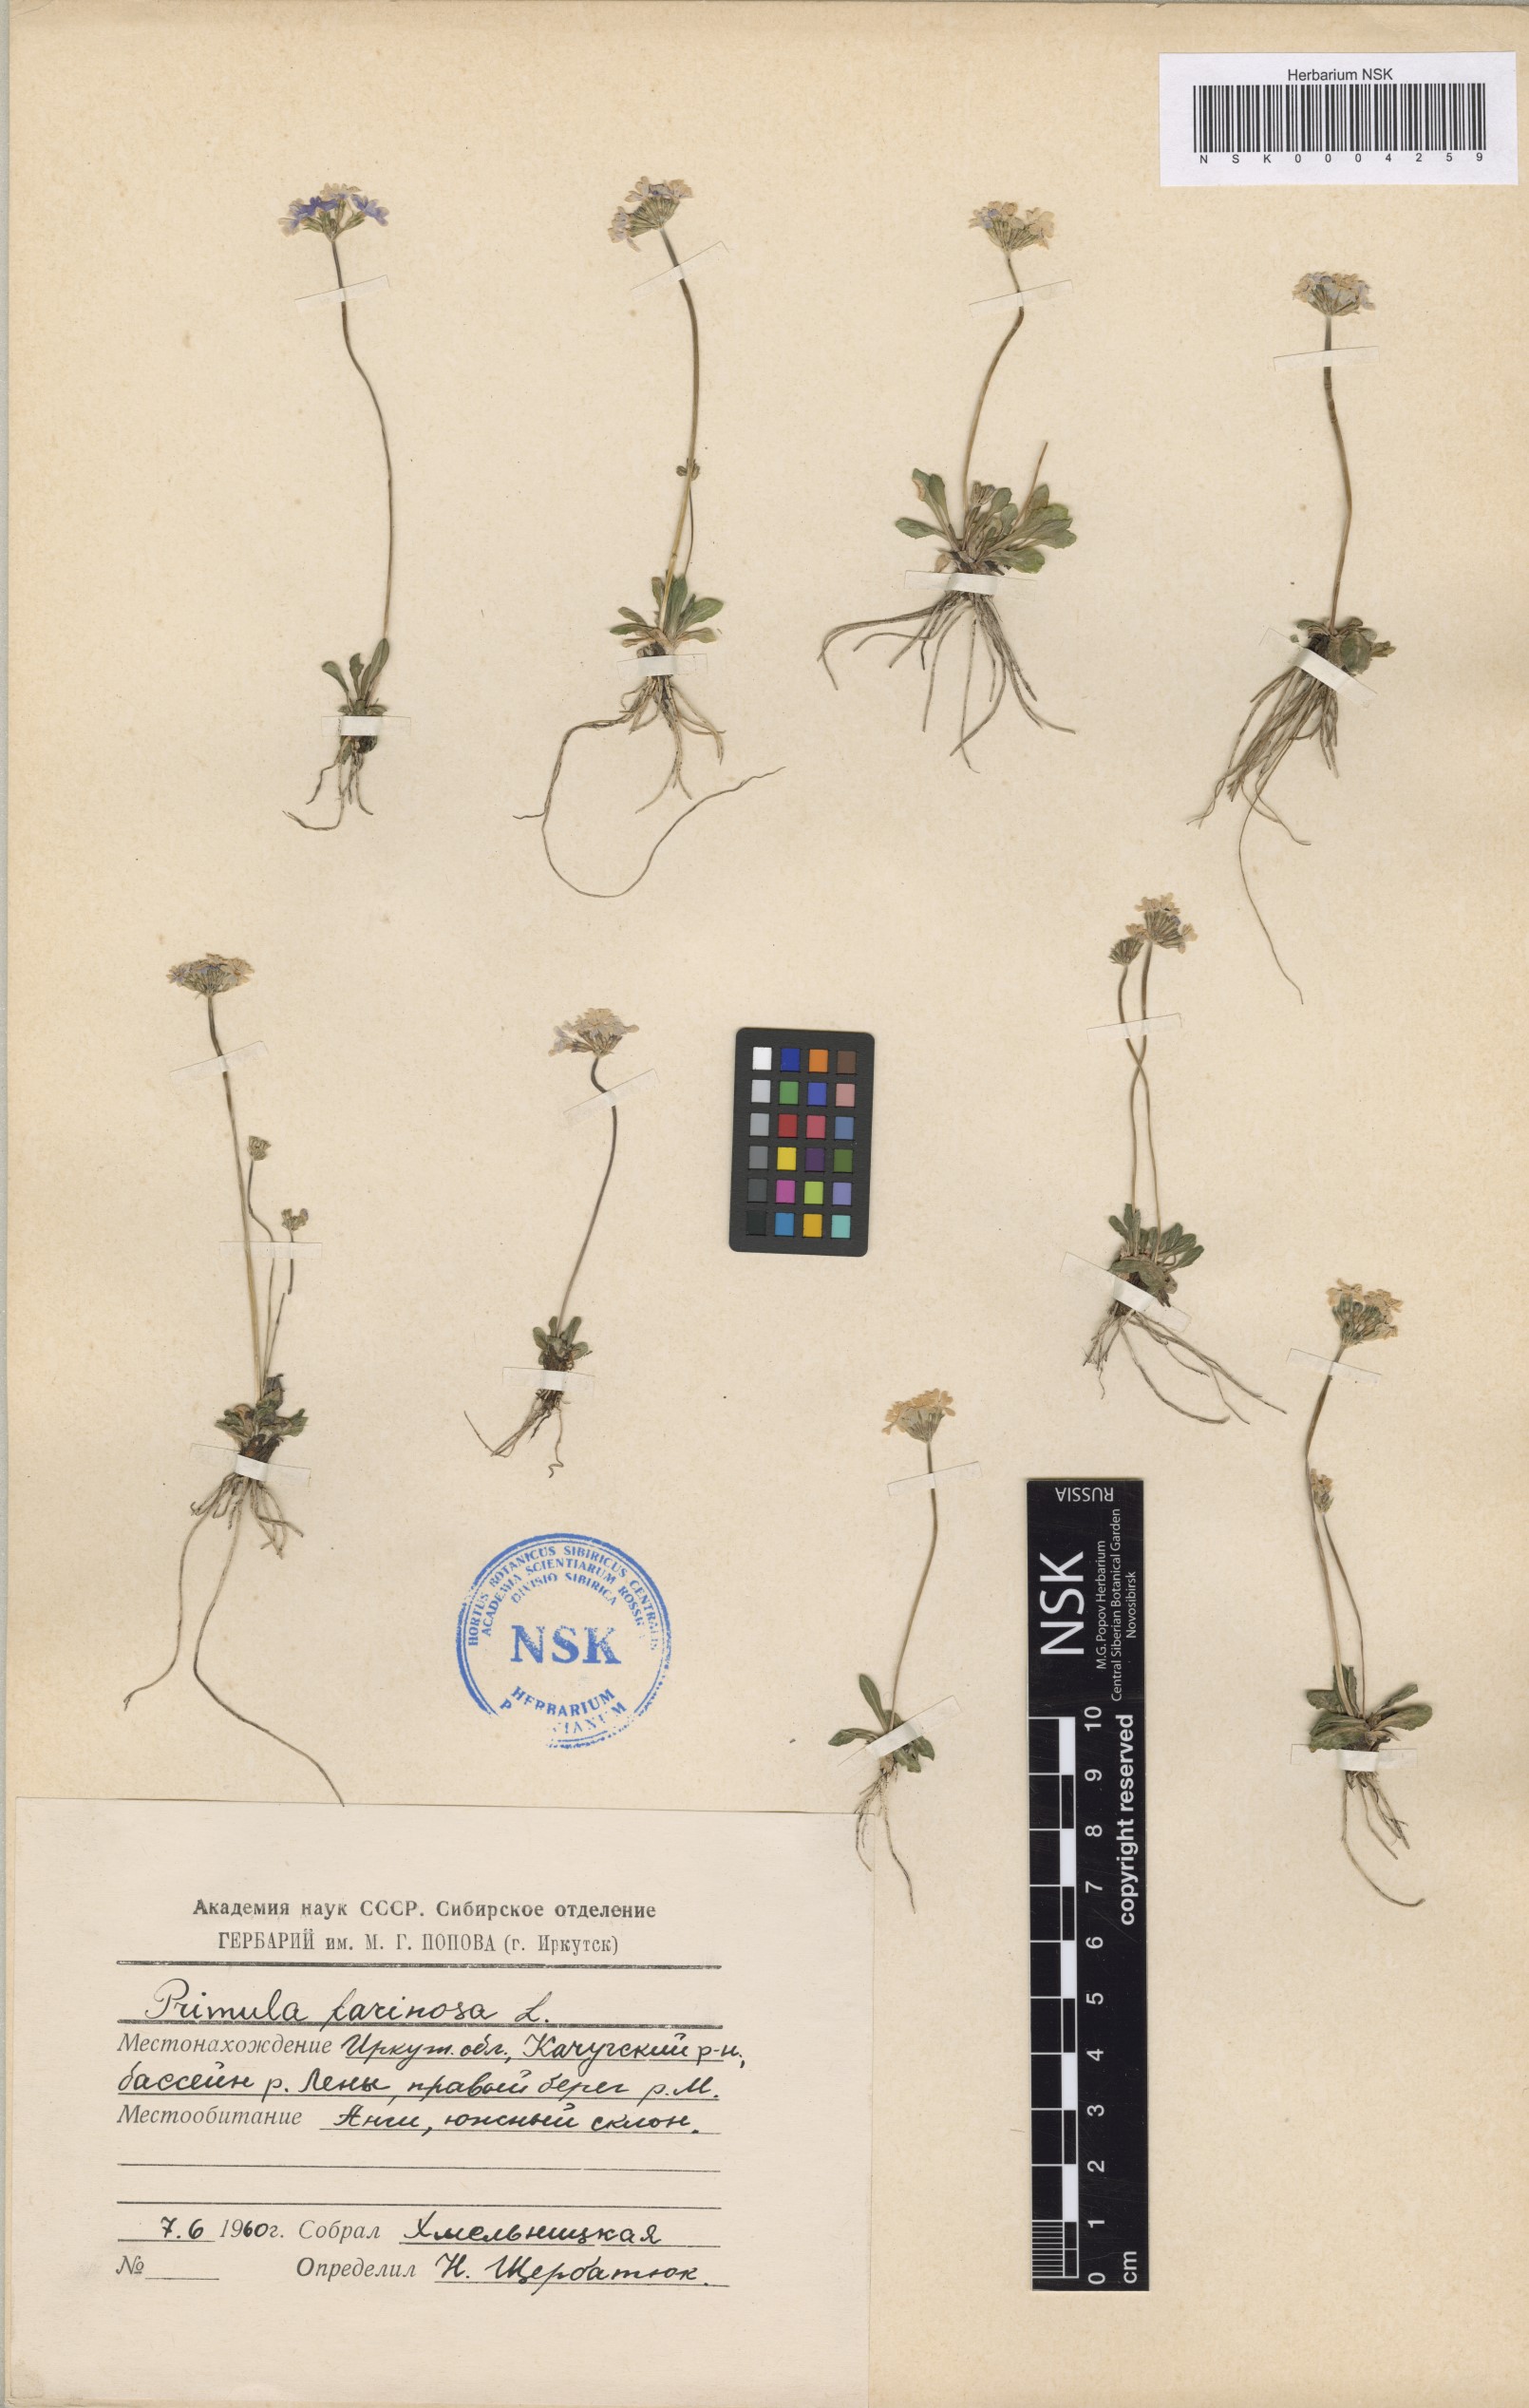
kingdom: Plantae
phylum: Tracheophyta
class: Magnoliopsida
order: Ericales
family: Primulaceae
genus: Primula
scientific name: Primula farinosa
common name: Bird's-eye primrose
